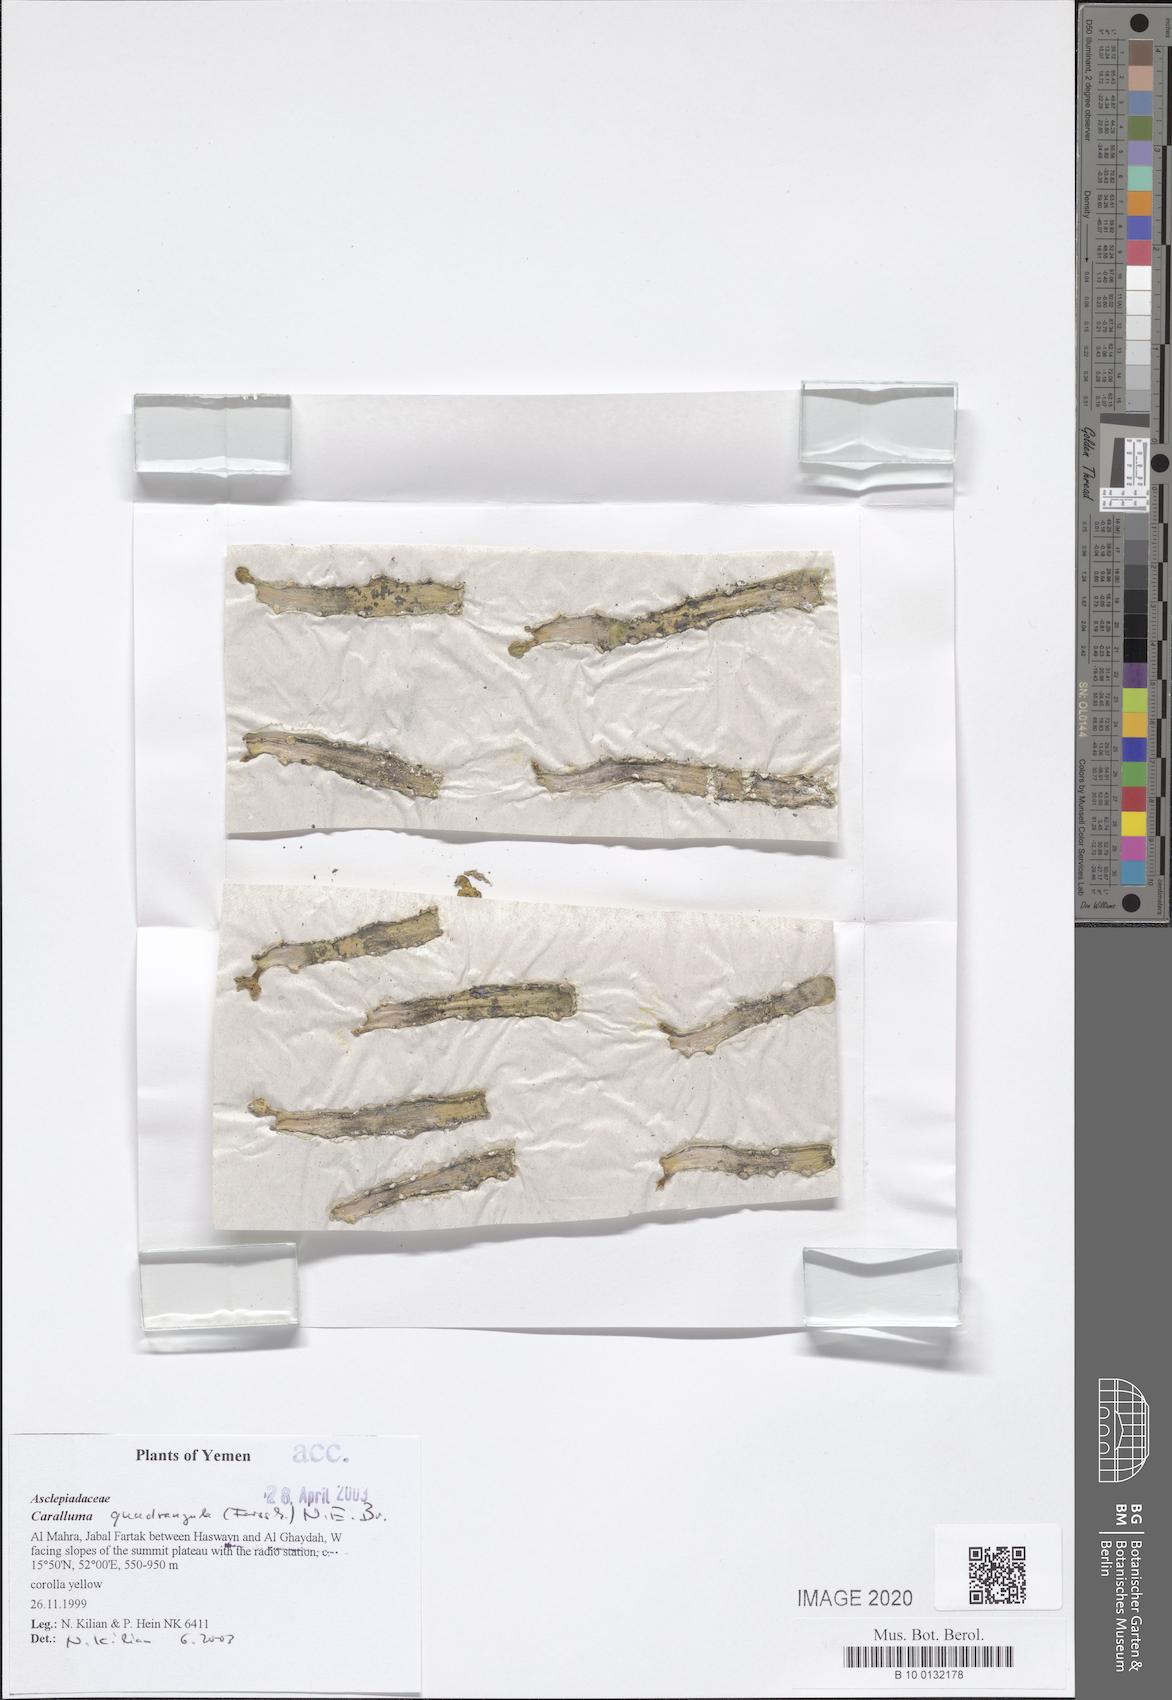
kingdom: Plantae
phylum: Tracheophyta
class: Magnoliopsida
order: Gentianales
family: Apocynaceae
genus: Ceropegia
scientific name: Ceropegia quadrangula
